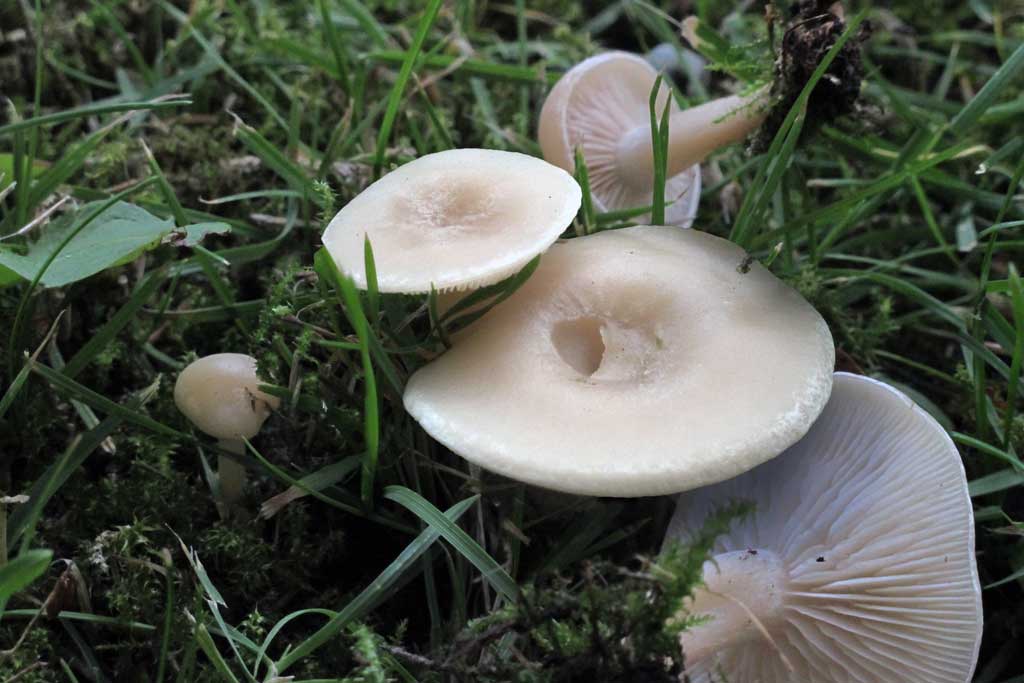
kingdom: Fungi
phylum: Basidiomycota
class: Agaricomycetes
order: Agaricales
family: Tricholomataceae
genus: Clitocybe
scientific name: Clitocybe rivulosa
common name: eng-tragthat
